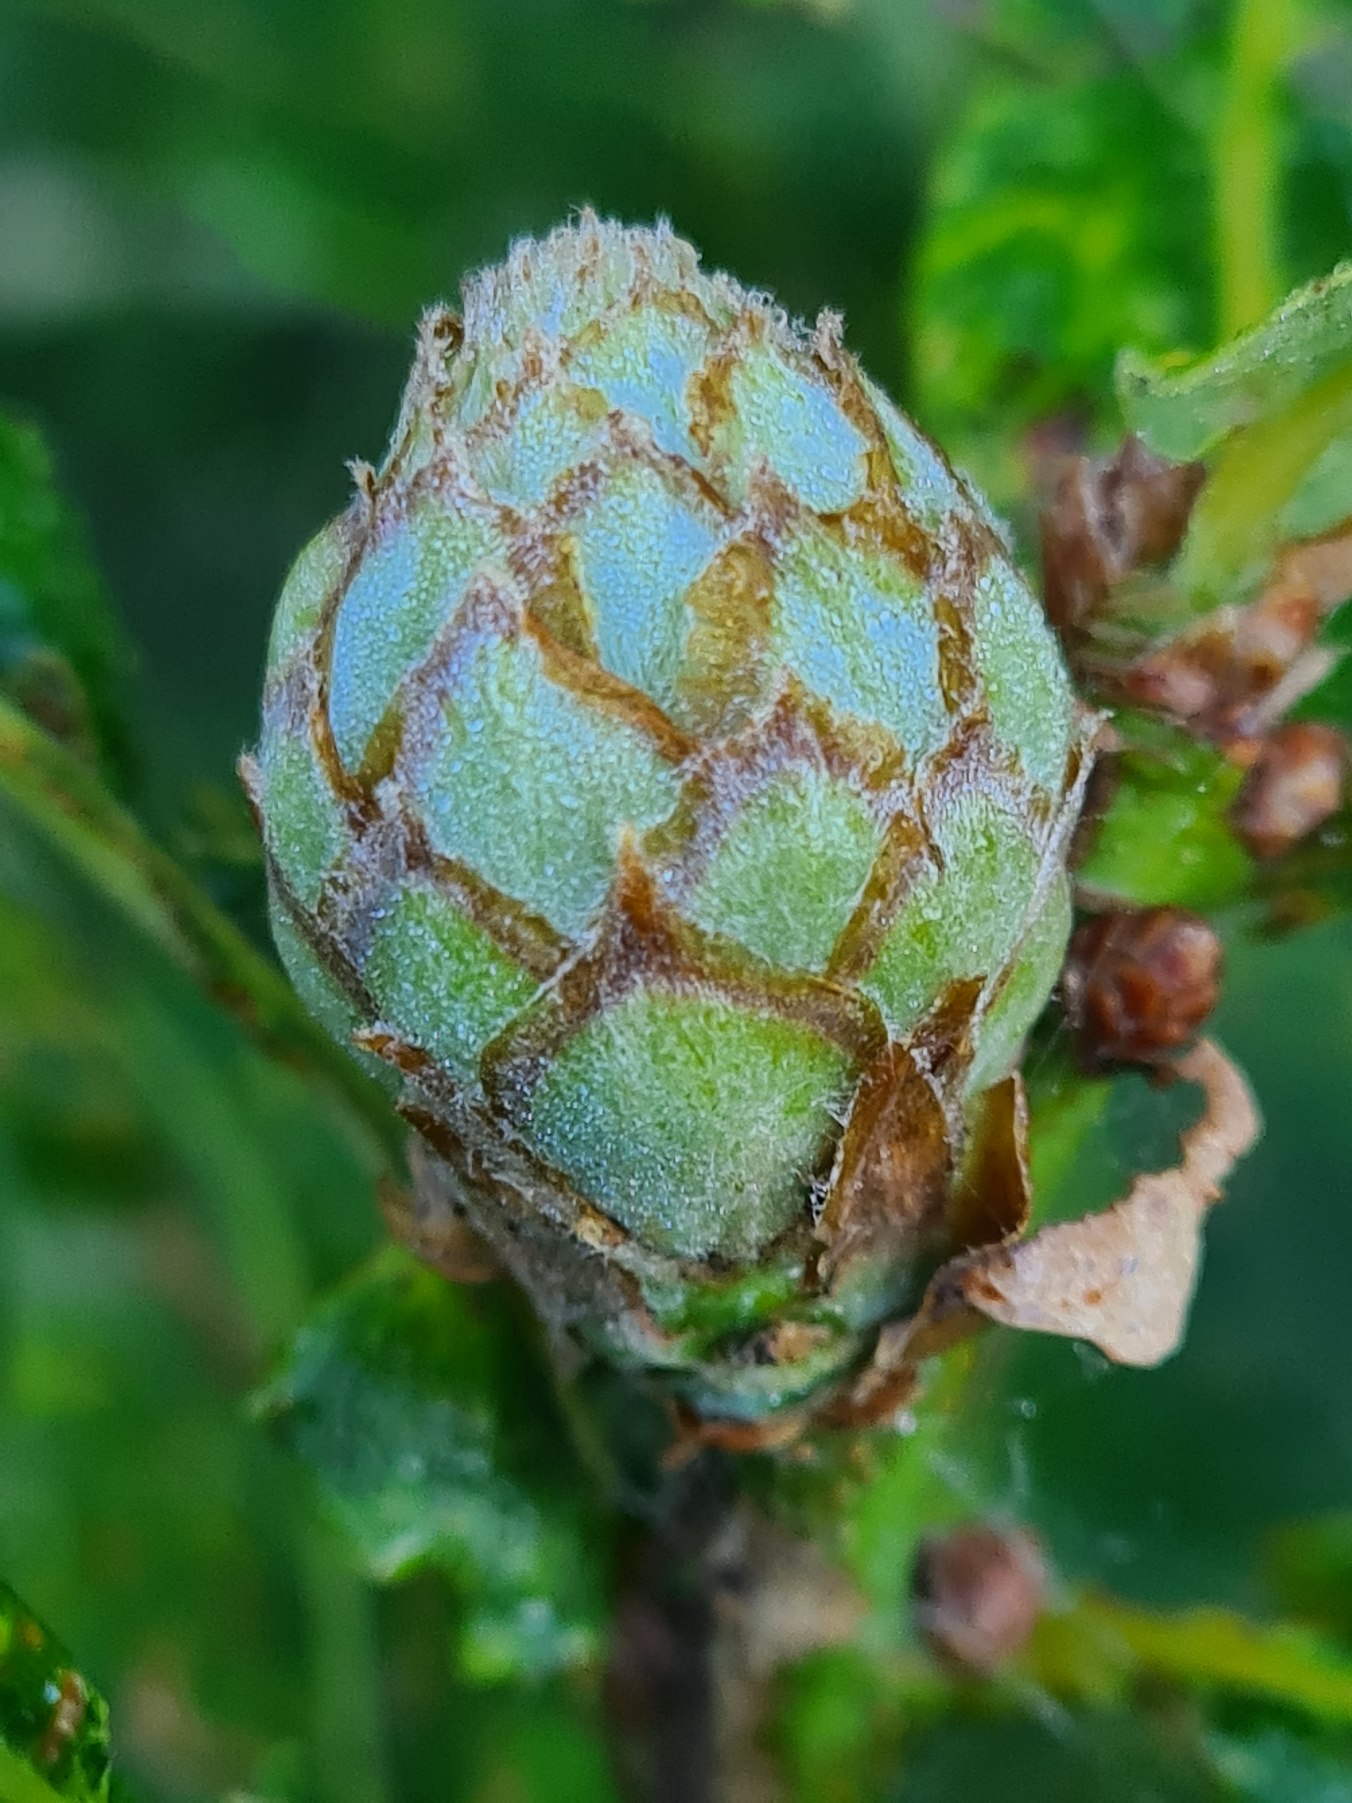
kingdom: Animalia
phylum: Arthropoda
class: Insecta
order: Hymenoptera
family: Cynipidae
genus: Andricus
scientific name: Andricus foecundatrix
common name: Artiskokgalhveps
